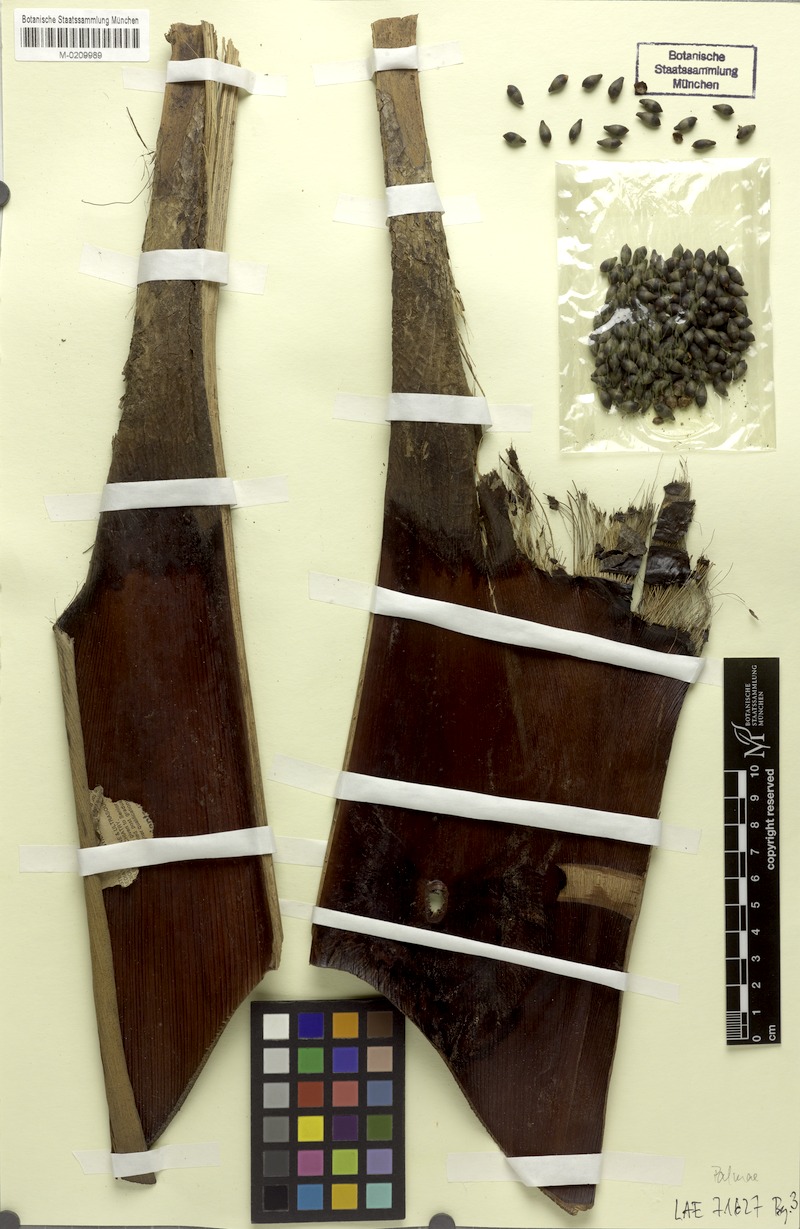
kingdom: Plantae
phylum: Tracheophyta
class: Liliopsida
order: Arecales
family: Arecaceae
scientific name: Arecaceae
